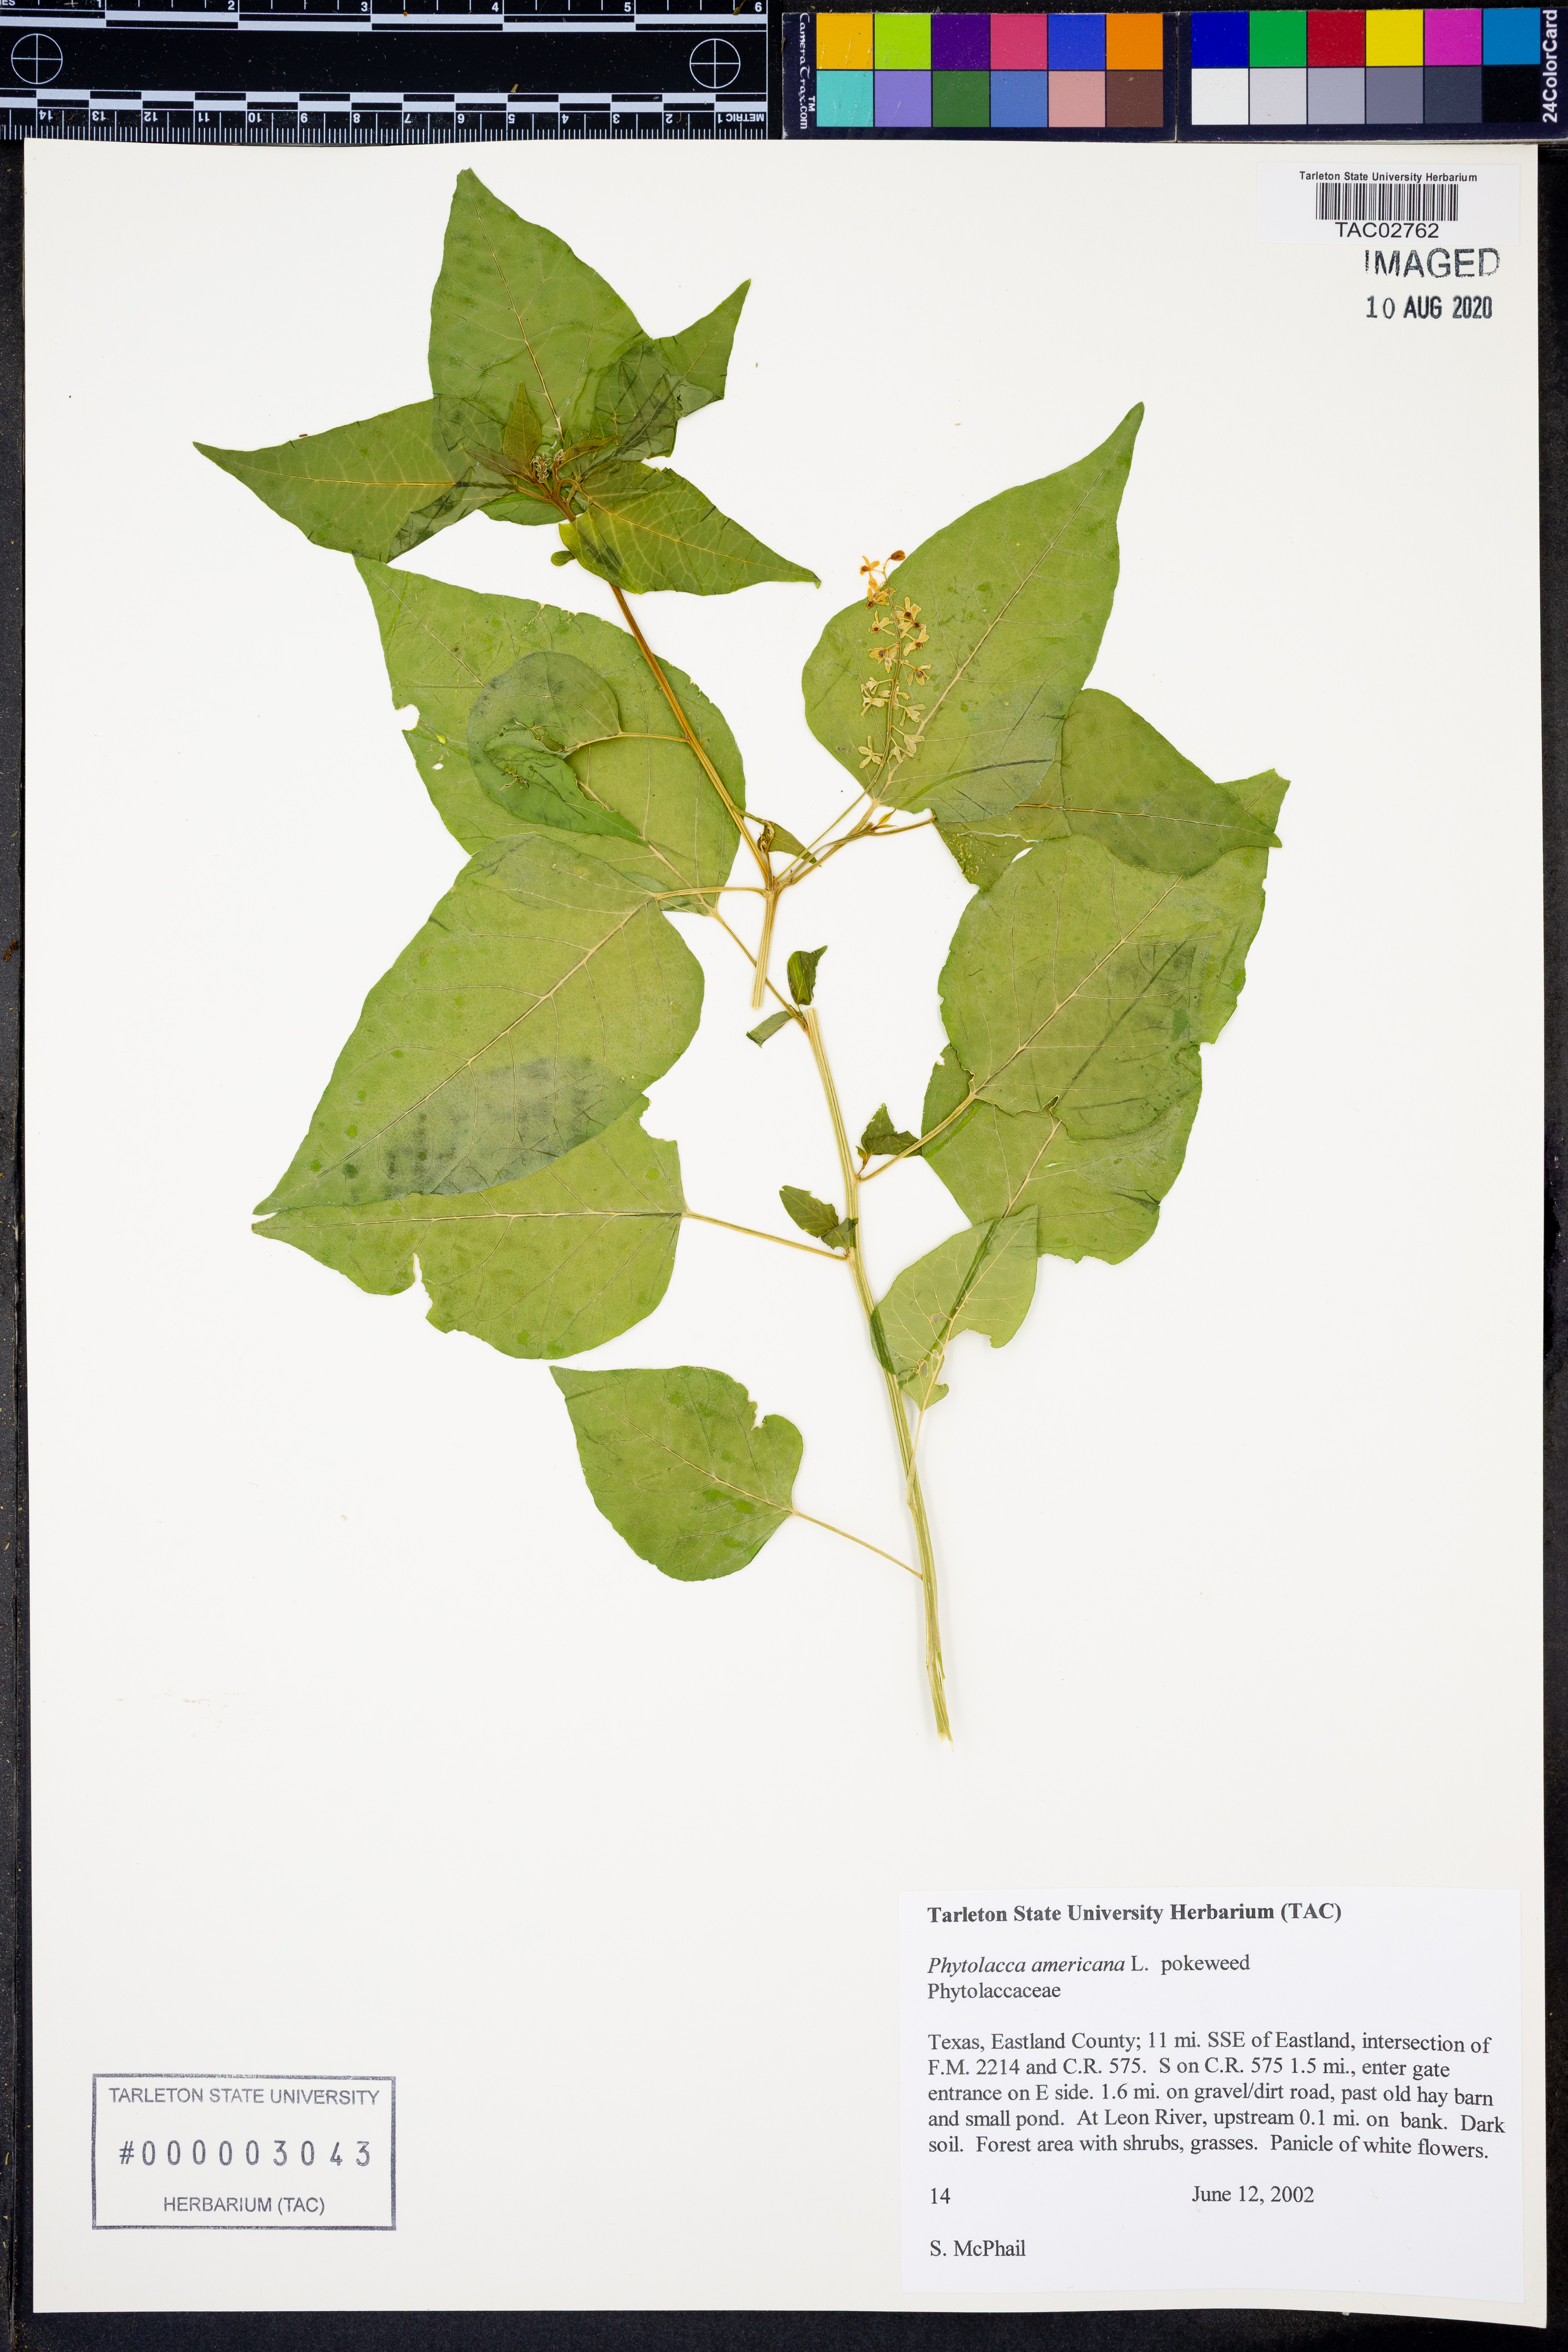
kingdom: Plantae
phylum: Tracheophyta
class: Magnoliopsida
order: Caryophyllales
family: Phytolaccaceae
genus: Phytolacca
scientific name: Phytolacca americana
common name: American pokeweed
